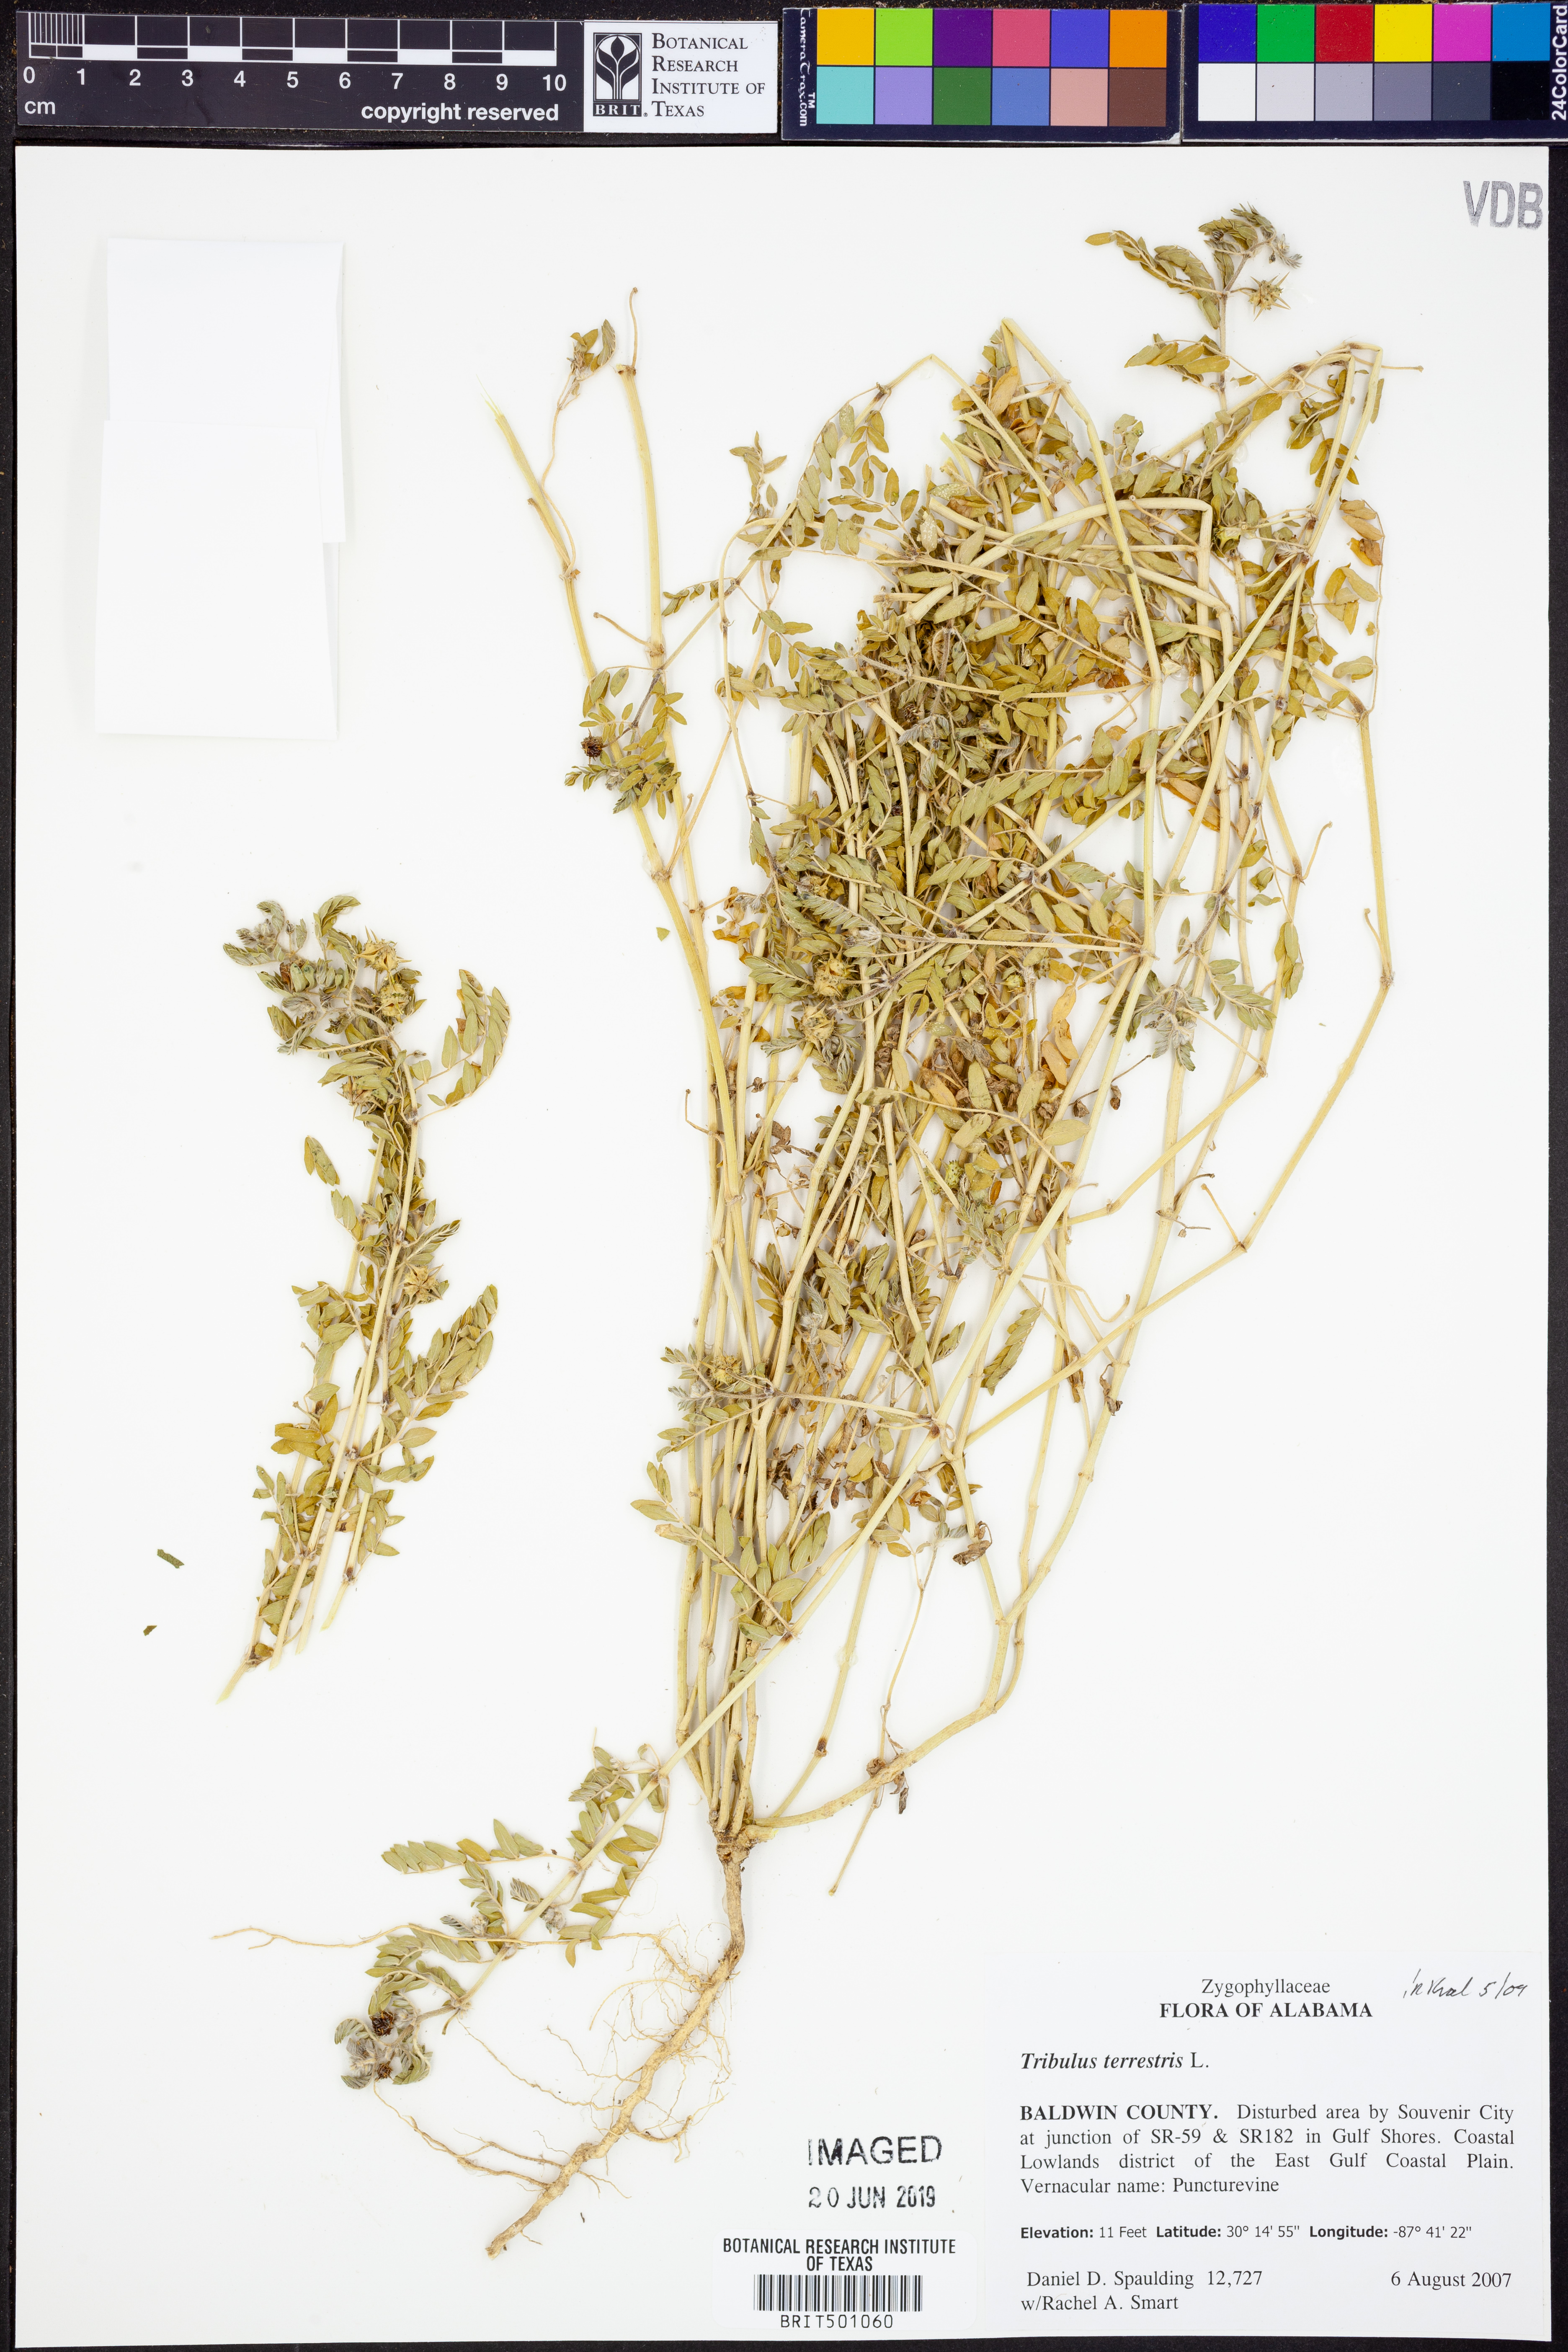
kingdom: Plantae
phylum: Tracheophyta
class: Magnoliopsida
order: Zygophyllales
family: Zygophyllaceae
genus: Tribulus
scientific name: Tribulus terrestris
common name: Puncturevine
